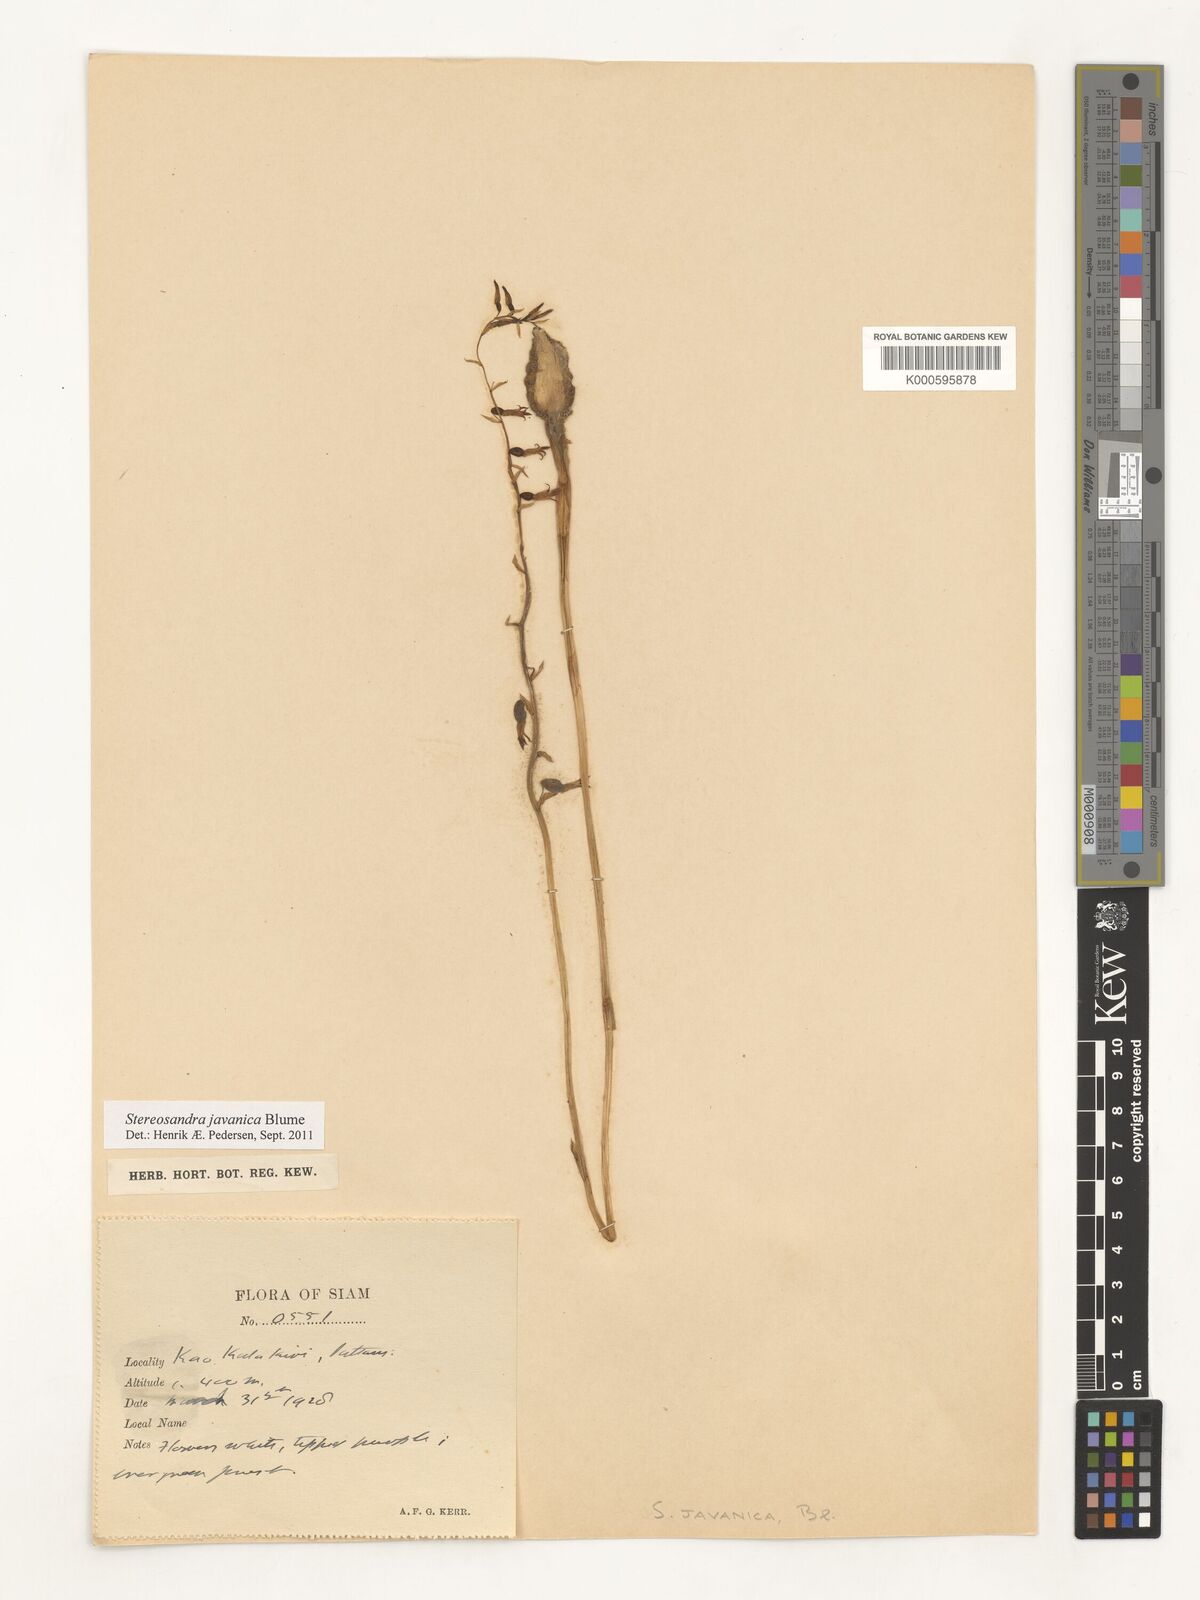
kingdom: Plantae
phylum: Tracheophyta
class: Liliopsida
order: Asparagales
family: Orchidaceae
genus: Stereosandra
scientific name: Stereosandra javanica
